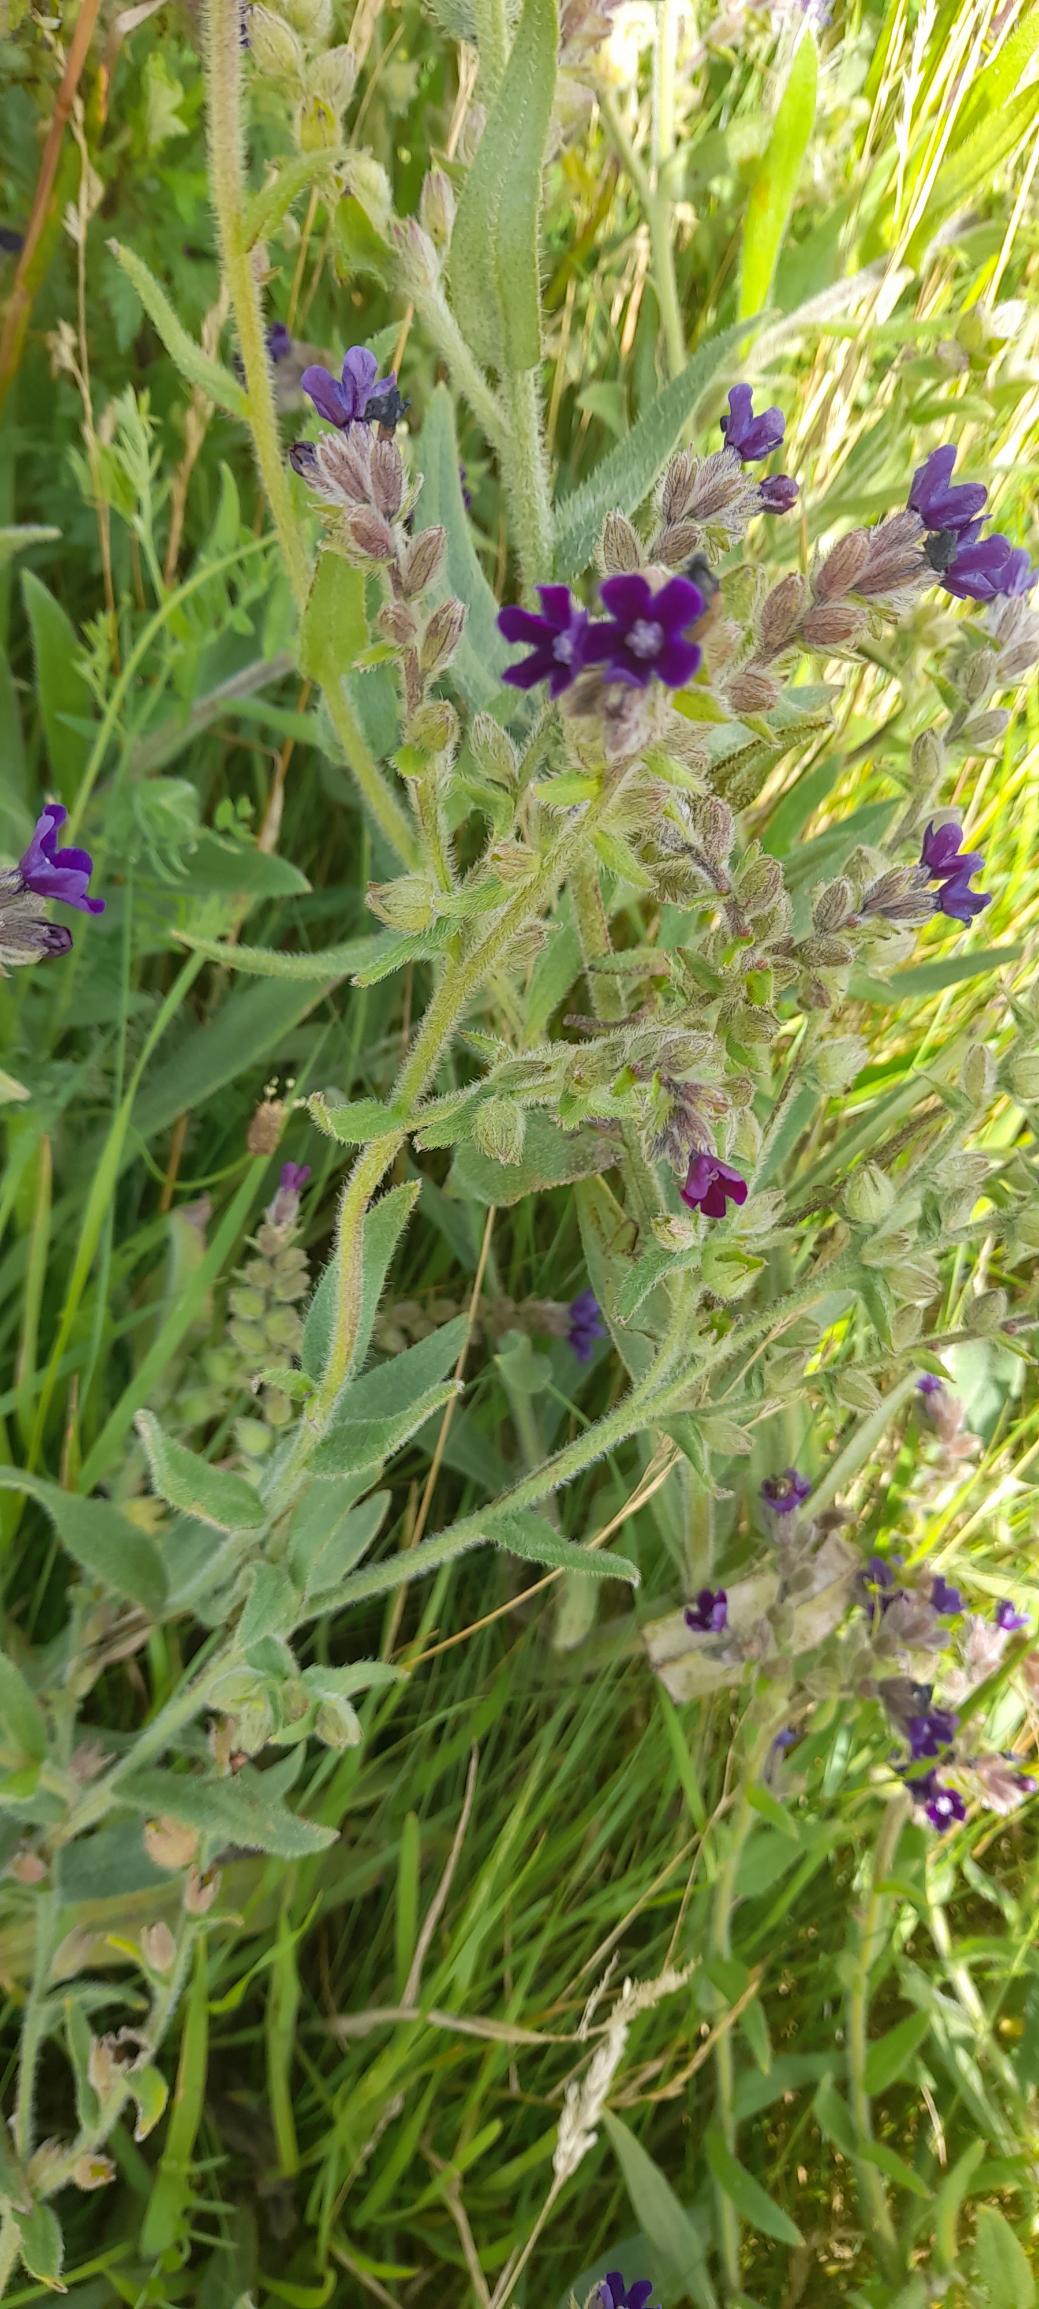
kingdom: Plantae
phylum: Tracheophyta
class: Magnoliopsida
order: Boraginales
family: Boraginaceae
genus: Anchusa
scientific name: Anchusa officinalis
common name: Læge-oksetunge
